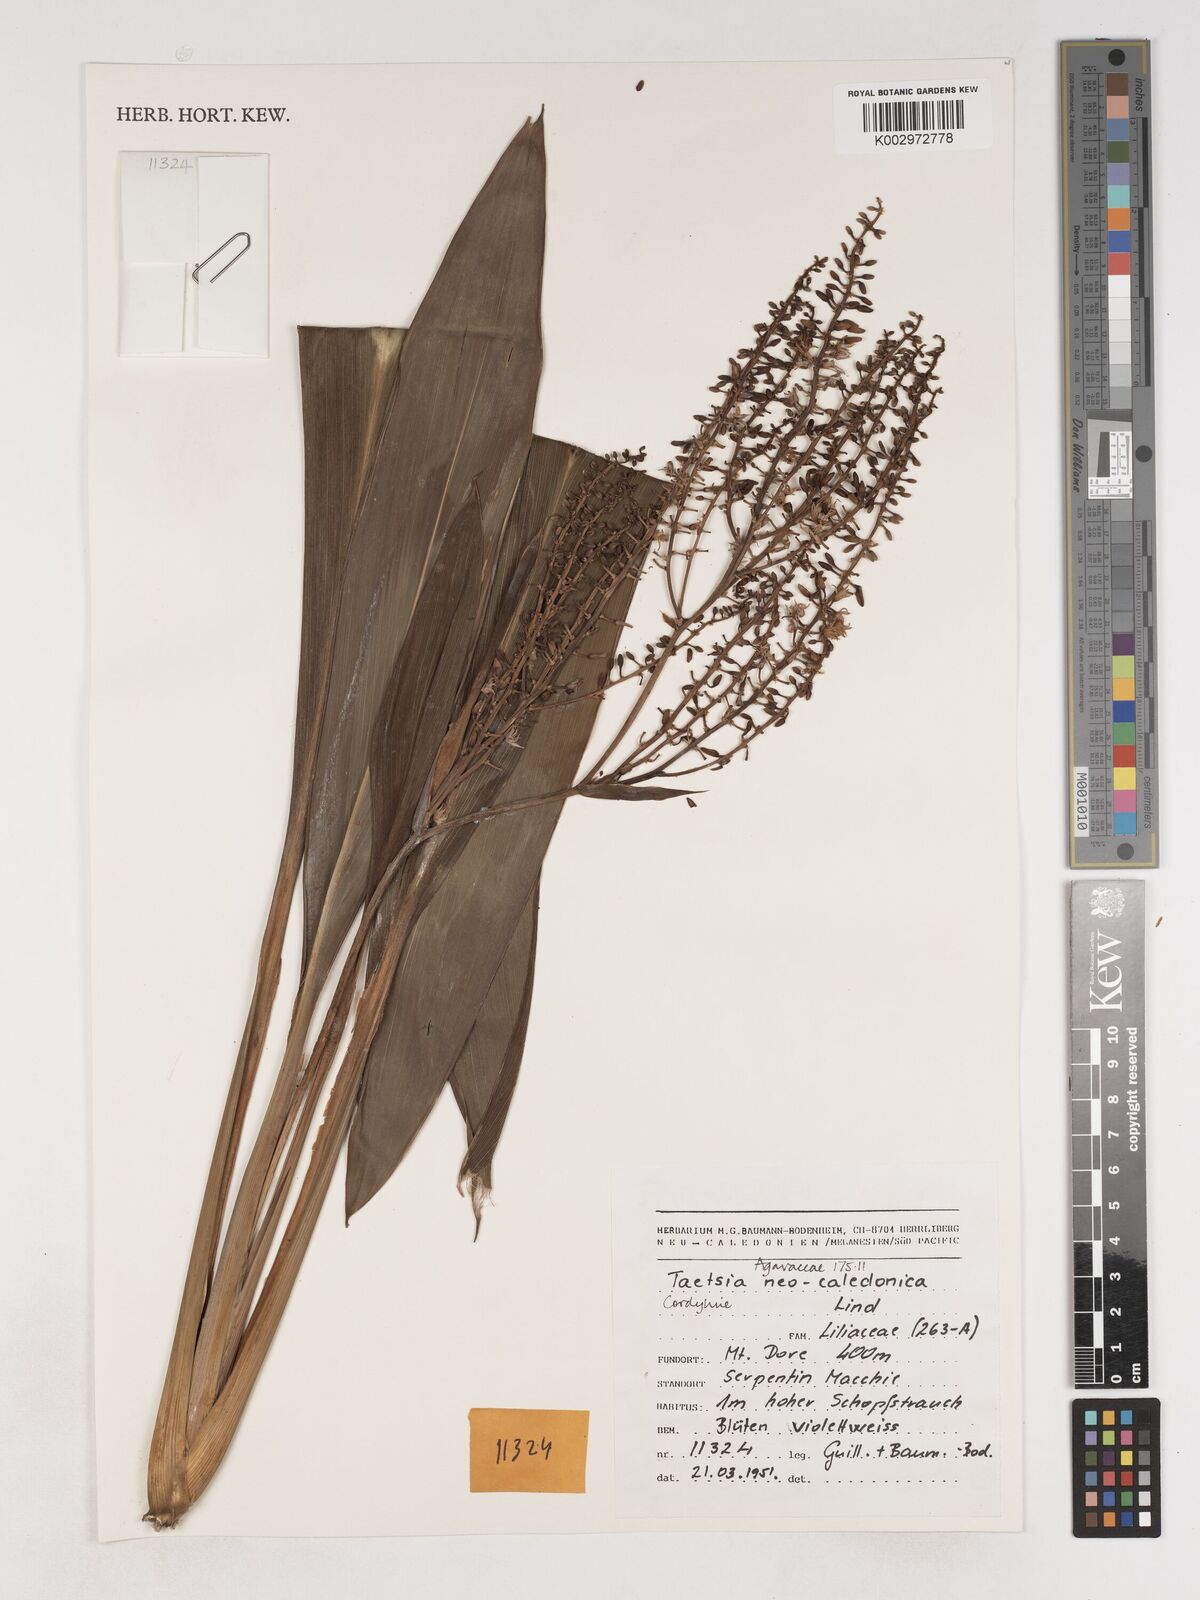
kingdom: Plantae
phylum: Tracheophyta
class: Liliopsida
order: Asparagales
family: Asparagaceae
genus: Cordyline
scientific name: Cordyline neocaledonica
